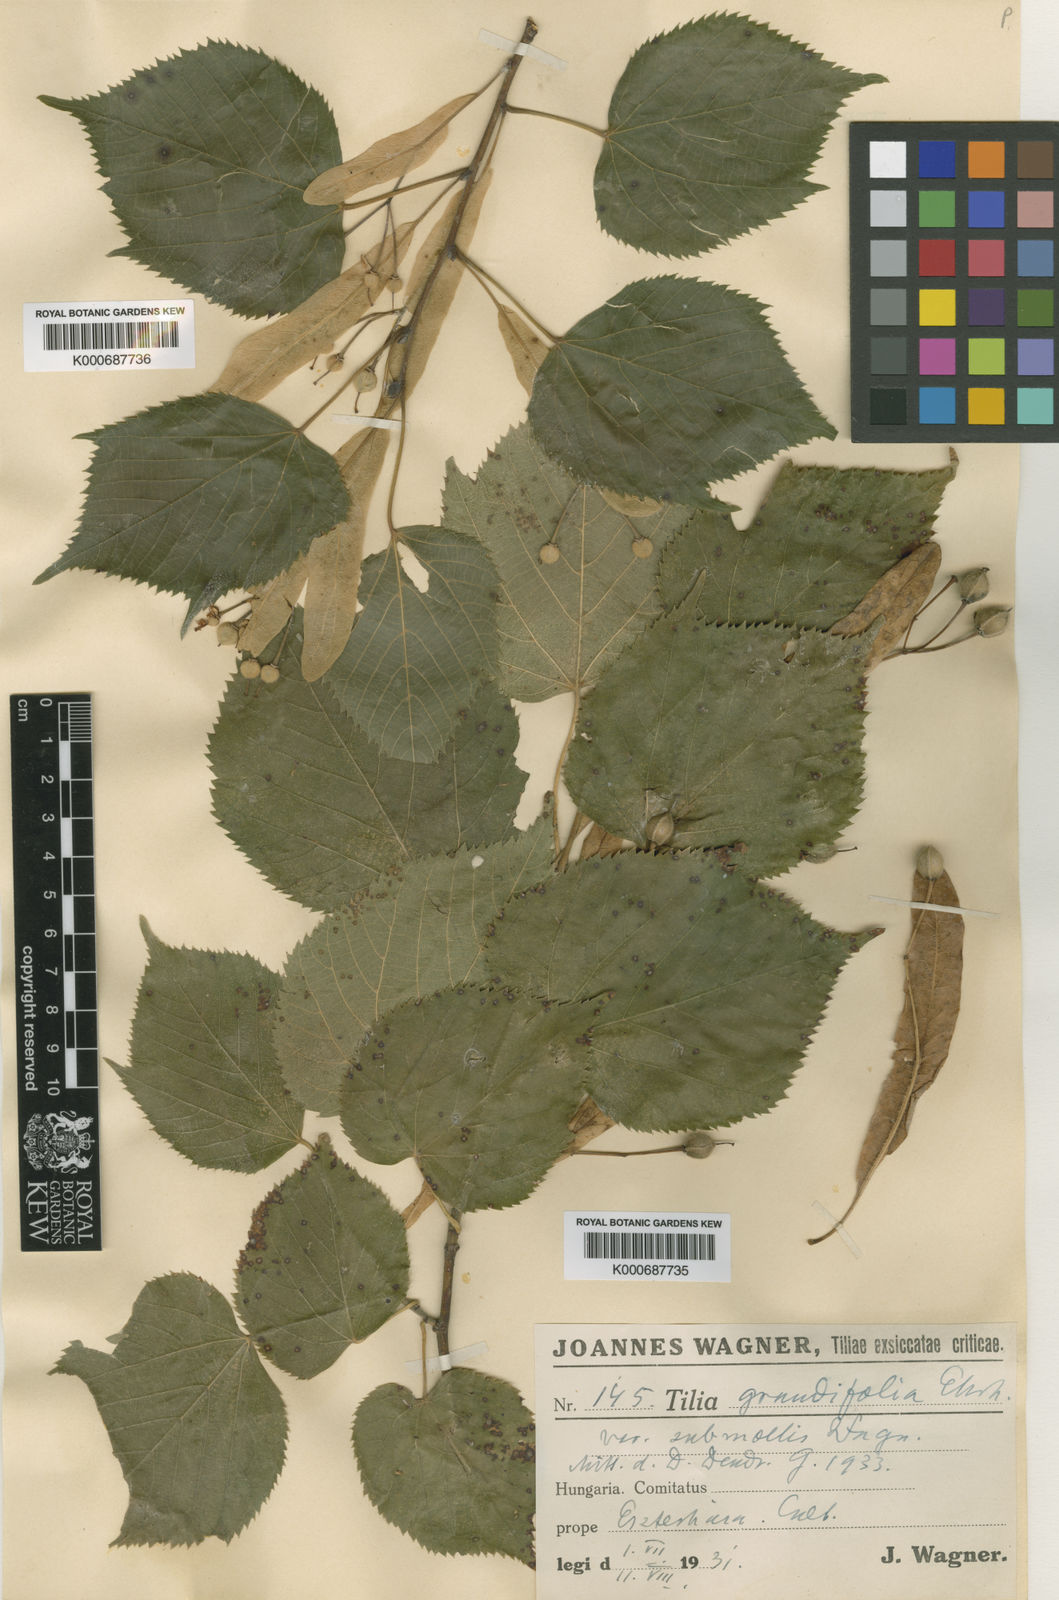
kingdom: Plantae
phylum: Tracheophyta
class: Magnoliopsida
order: Malvales
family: Malvaceae
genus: Tilia
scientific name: Tilia platyphyllos
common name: Large-leaved lime
